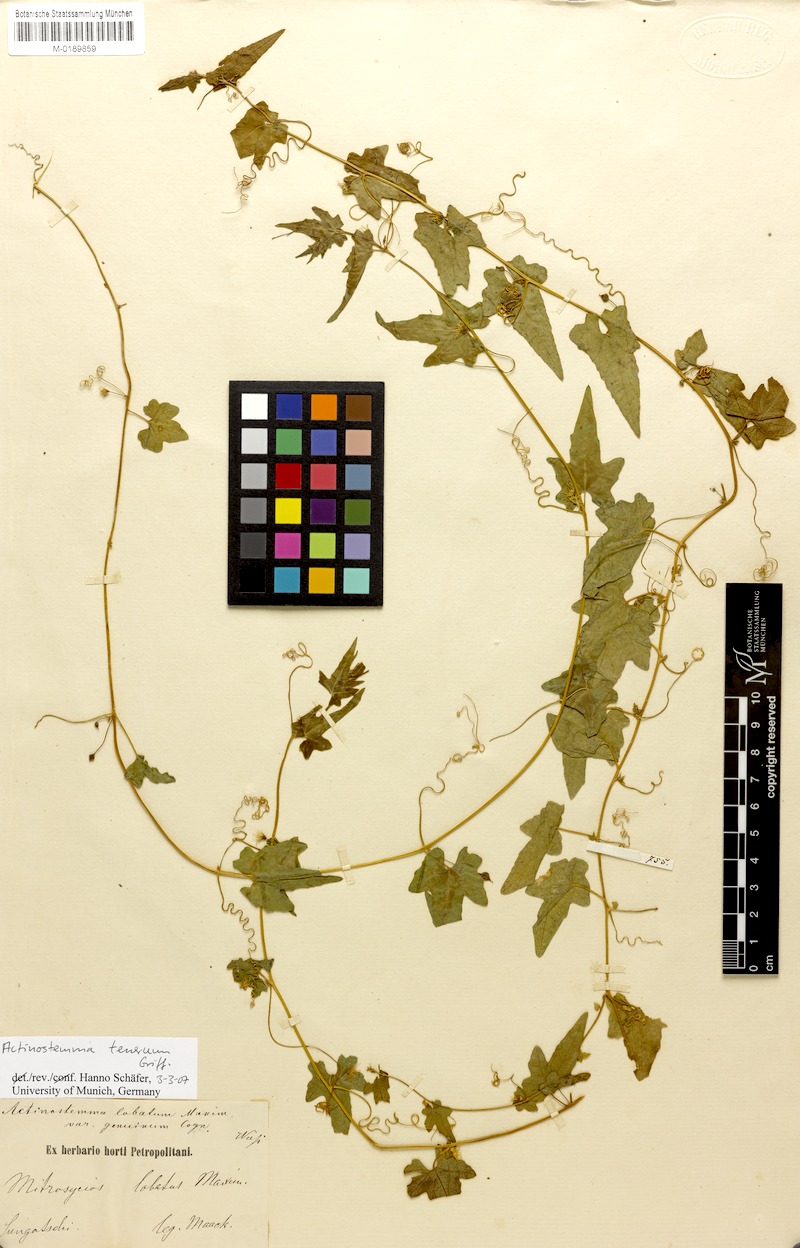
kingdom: Plantae
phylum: Tracheophyta
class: Magnoliopsida
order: Cucurbitales
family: Cucurbitaceae
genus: Actinostemma
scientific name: Actinostemma tenerum
